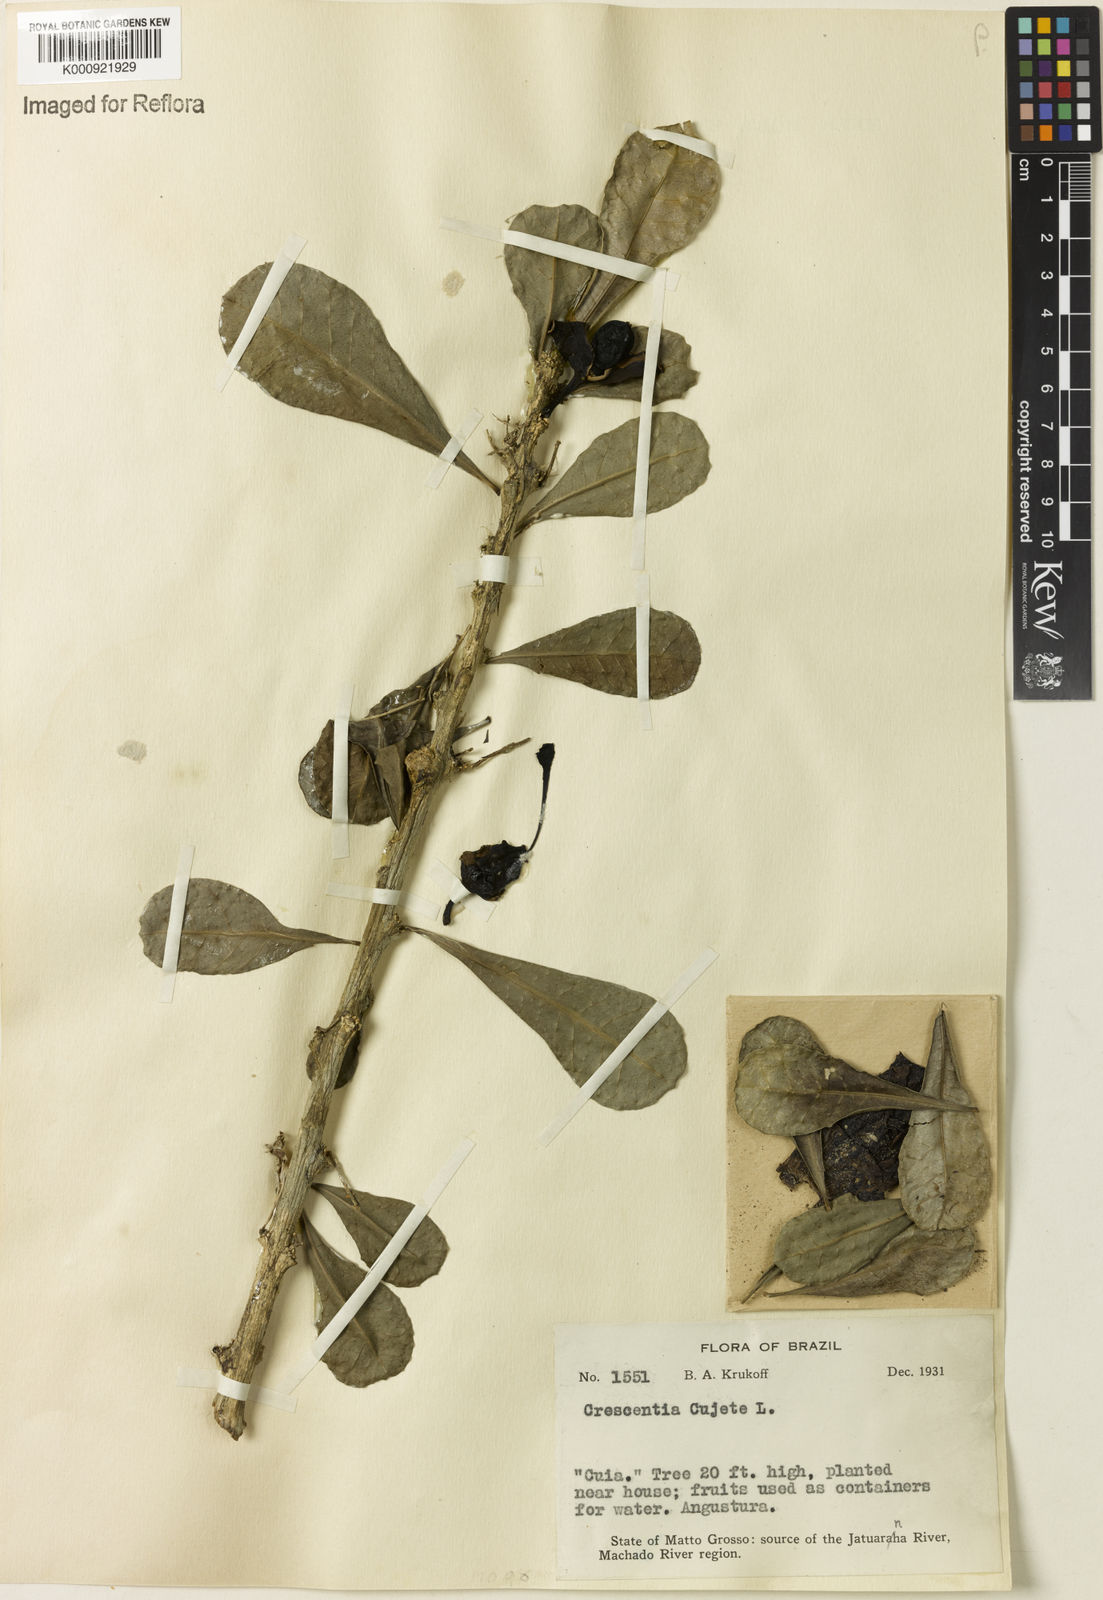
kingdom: Plantae
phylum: Tracheophyta
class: Magnoliopsida
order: Lamiales
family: Bignoniaceae
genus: Crescentia
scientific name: Crescentia cujete
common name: Calabash
